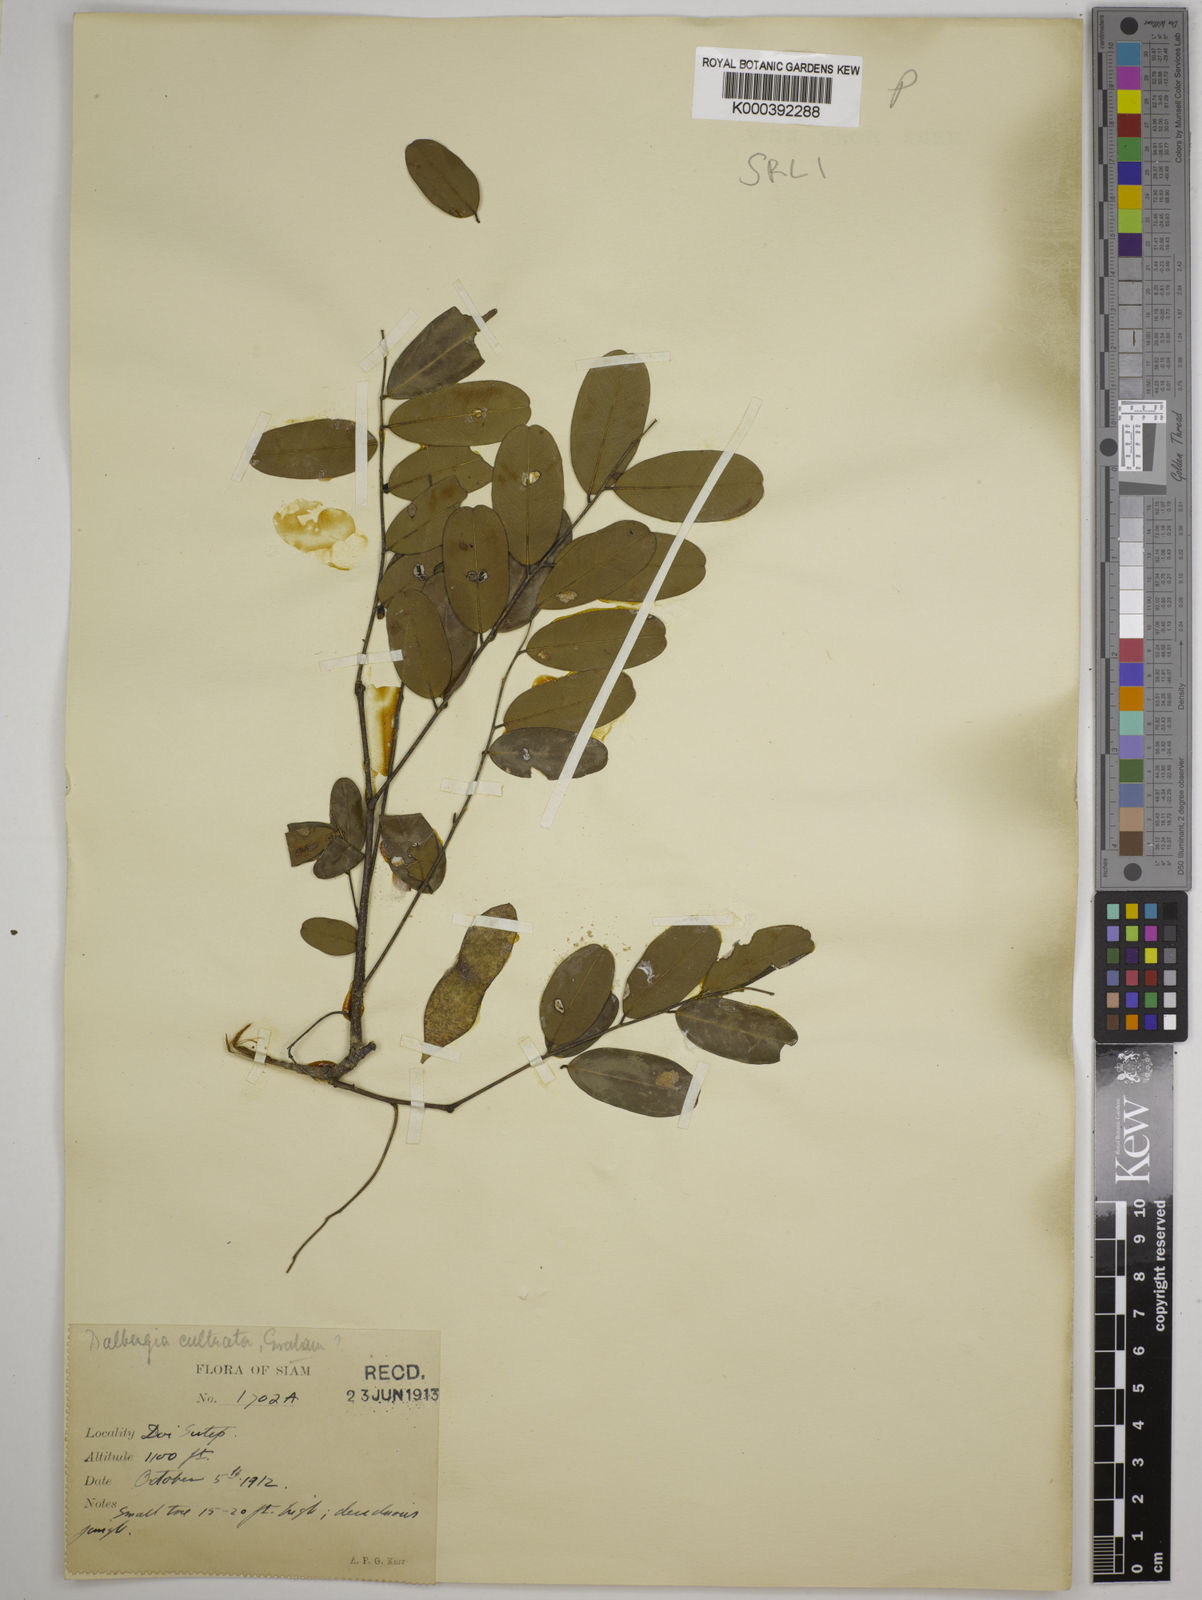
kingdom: Plantae
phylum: Tracheophyta
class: Magnoliopsida
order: Fabales
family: Fabaceae
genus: Dalbergia
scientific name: Dalbergia
